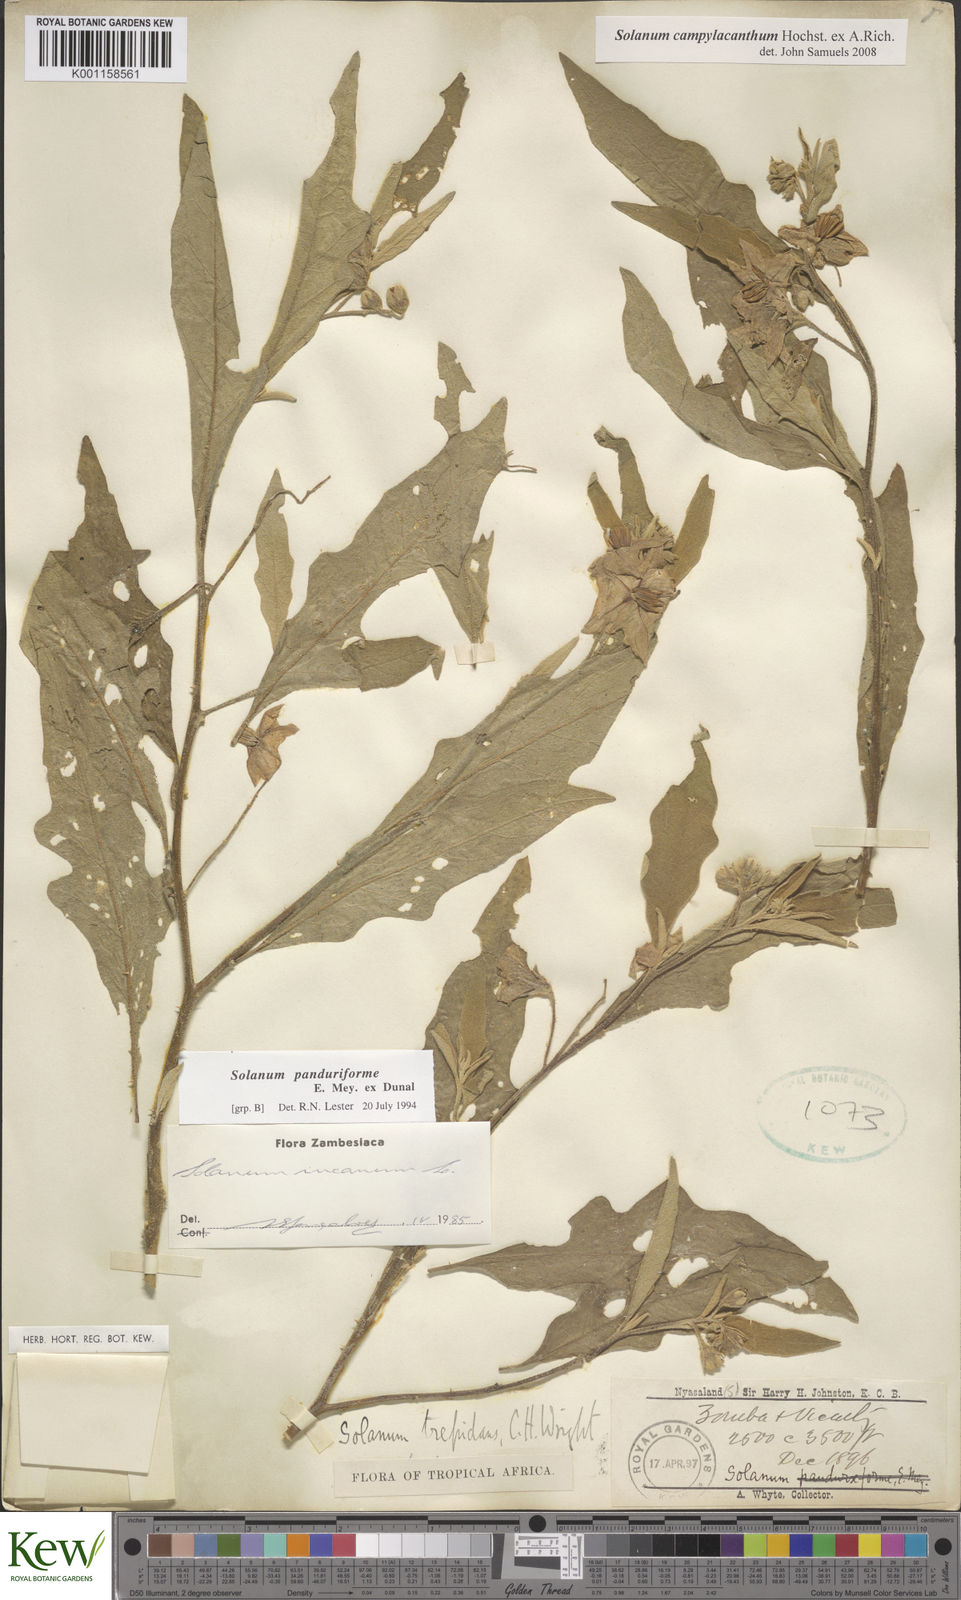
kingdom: Plantae
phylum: Tracheophyta
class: Magnoliopsida
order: Solanales
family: Solanaceae
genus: Solanum
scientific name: Solanum campylacanthum
